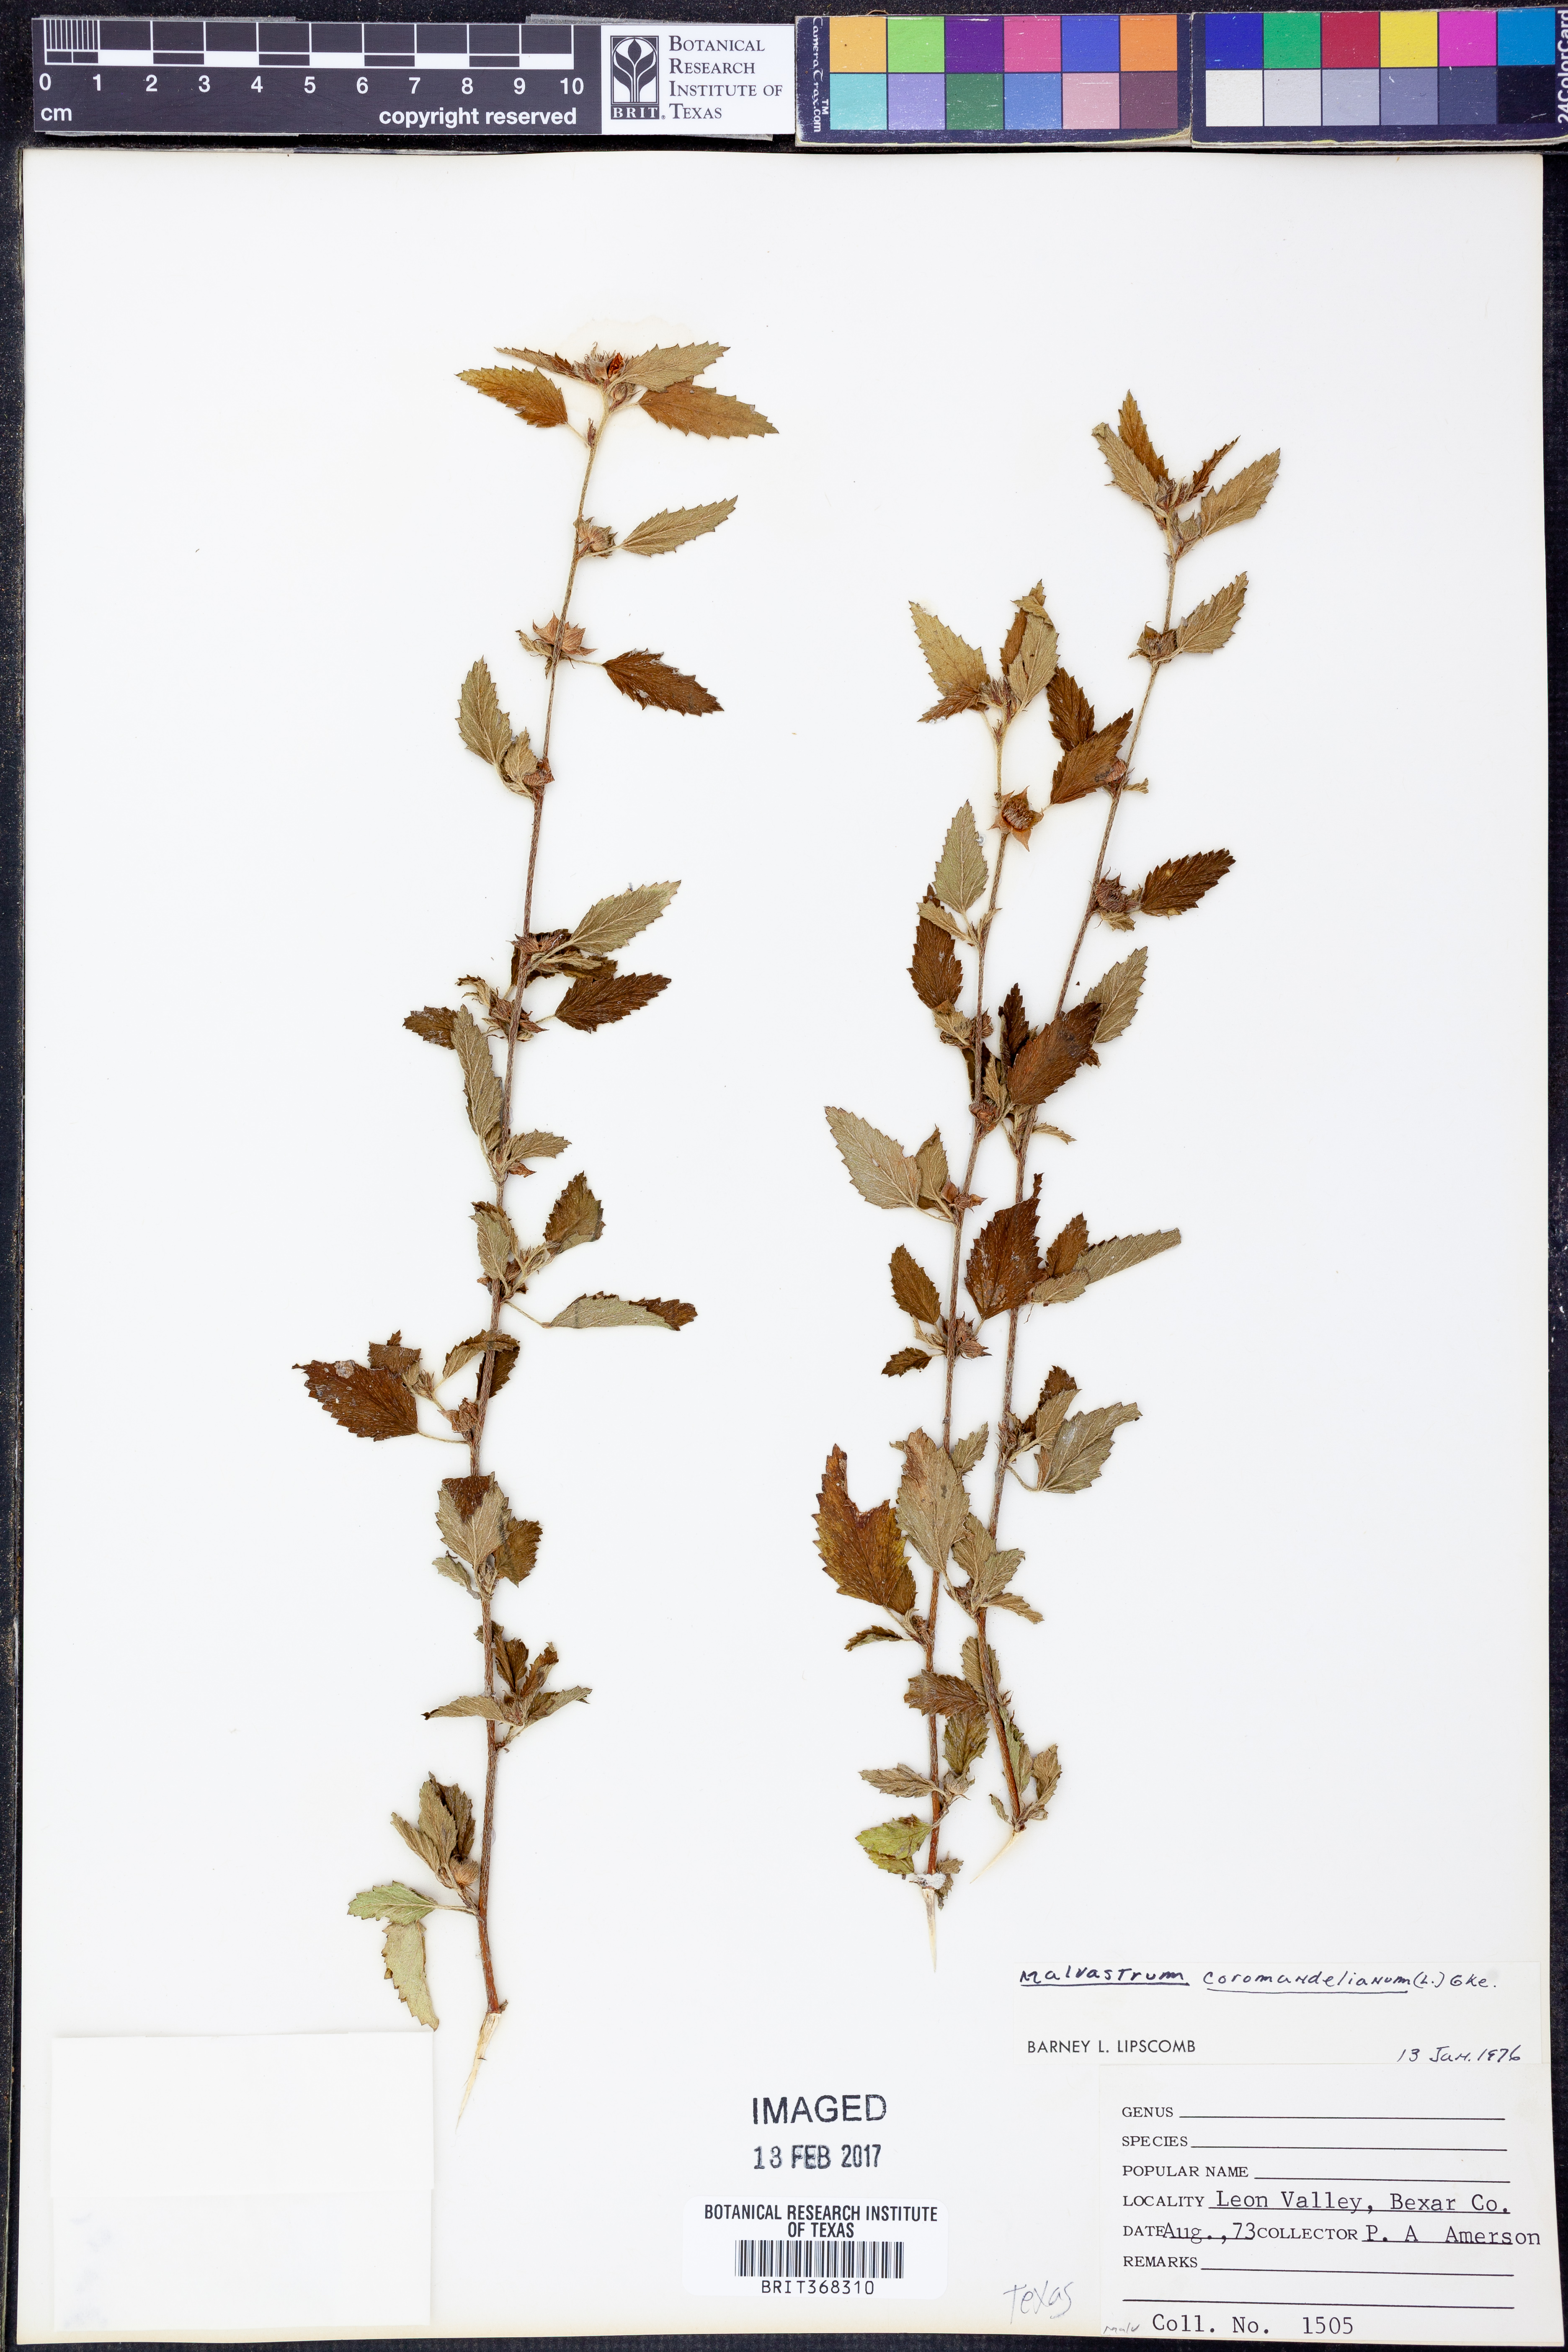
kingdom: Plantae
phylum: Tracheophyta
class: Magnoliopsida
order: Malvales
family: Malvaceae
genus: Malvastrum
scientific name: Malvastrum coromandelianum
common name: Threelobe false mallow
